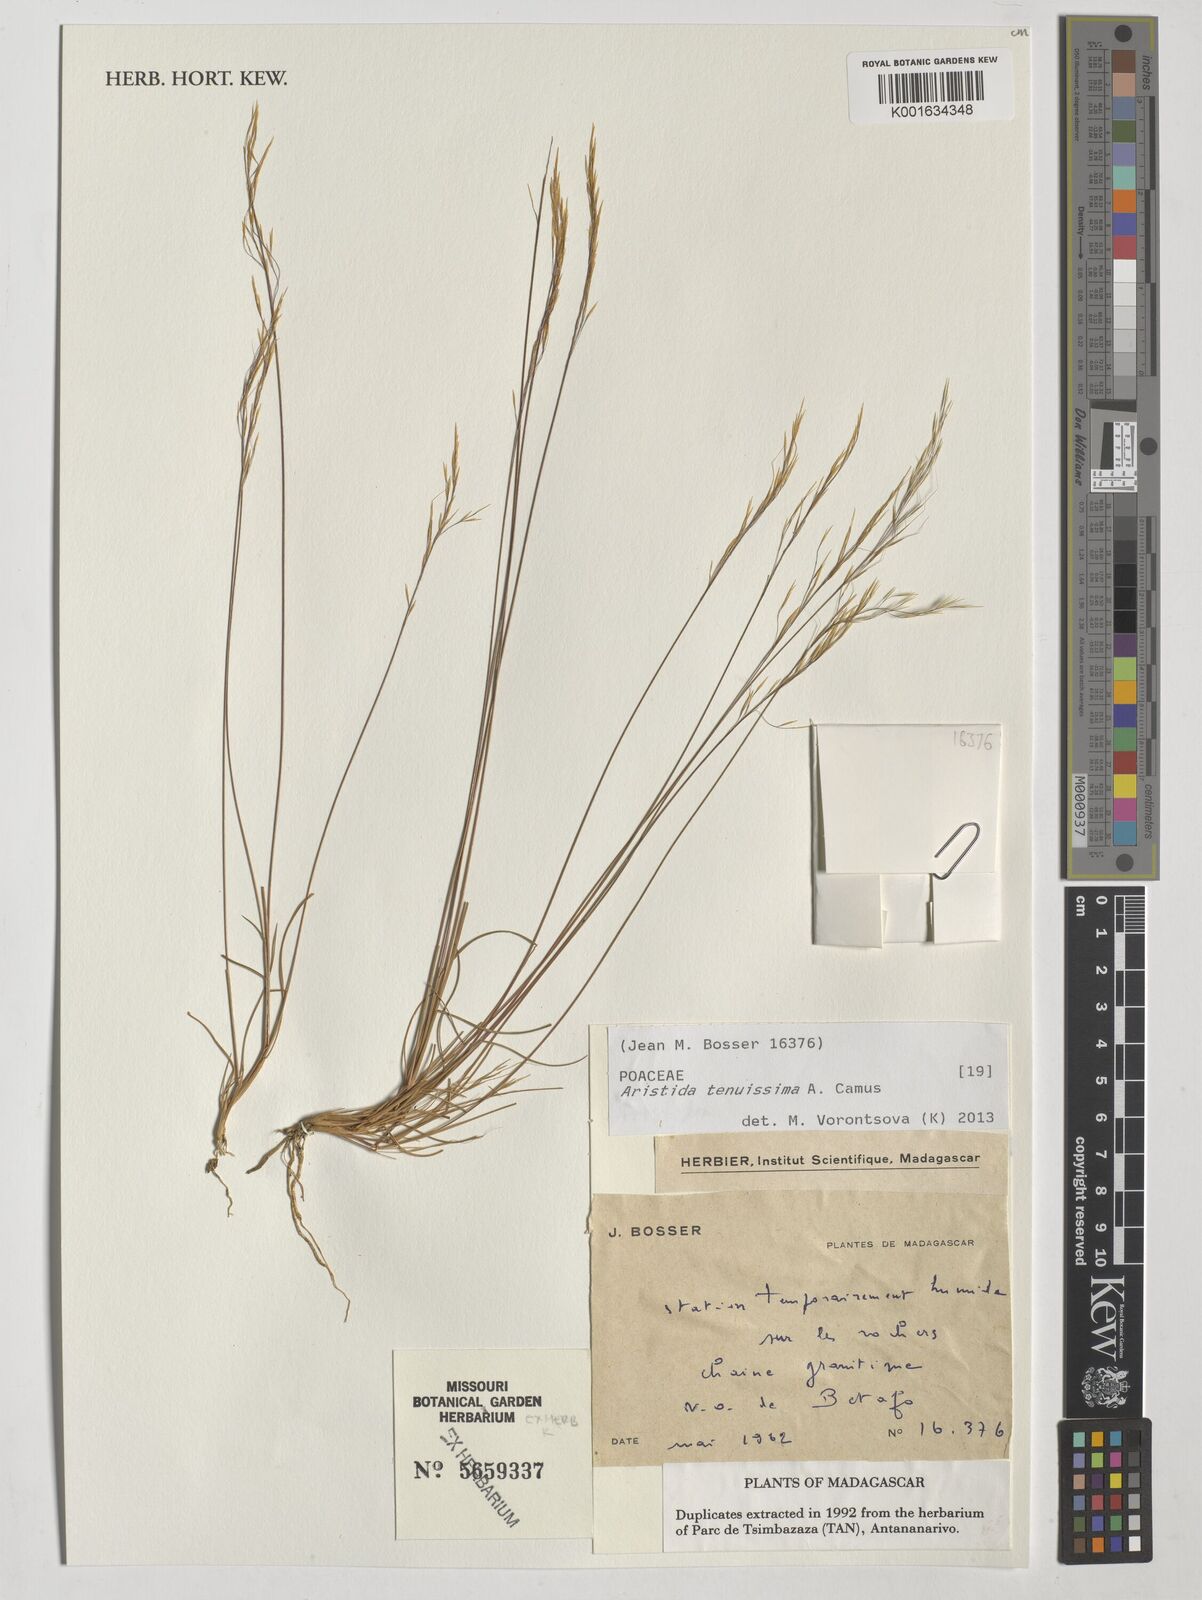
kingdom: Plantae
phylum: Tracheophyta
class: Liliopsida
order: Poales
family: Poaceae
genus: Aristida
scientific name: Aristida tenuissima
